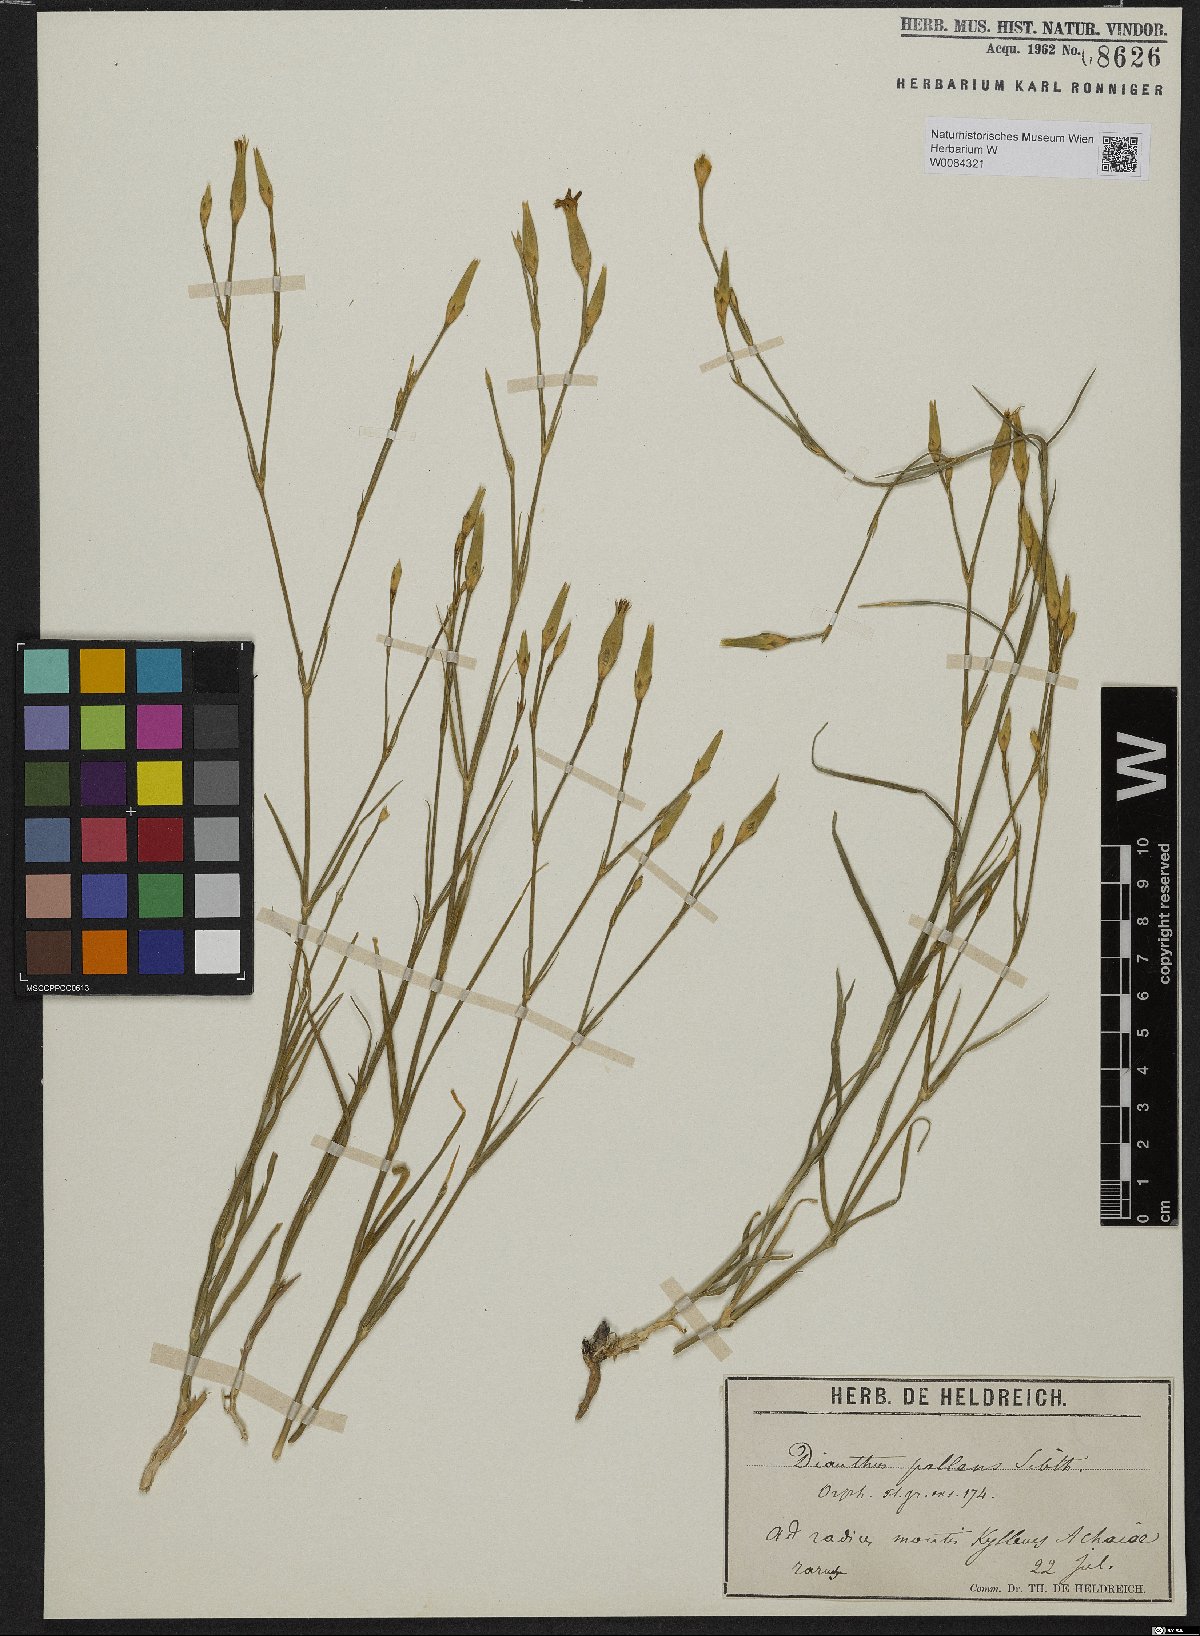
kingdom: Plantae
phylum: Tracheophyta
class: Magnoliopsida
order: Caryophyllales
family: Caryophyllaceae
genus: Dianthus
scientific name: Dianthus monadelphus
